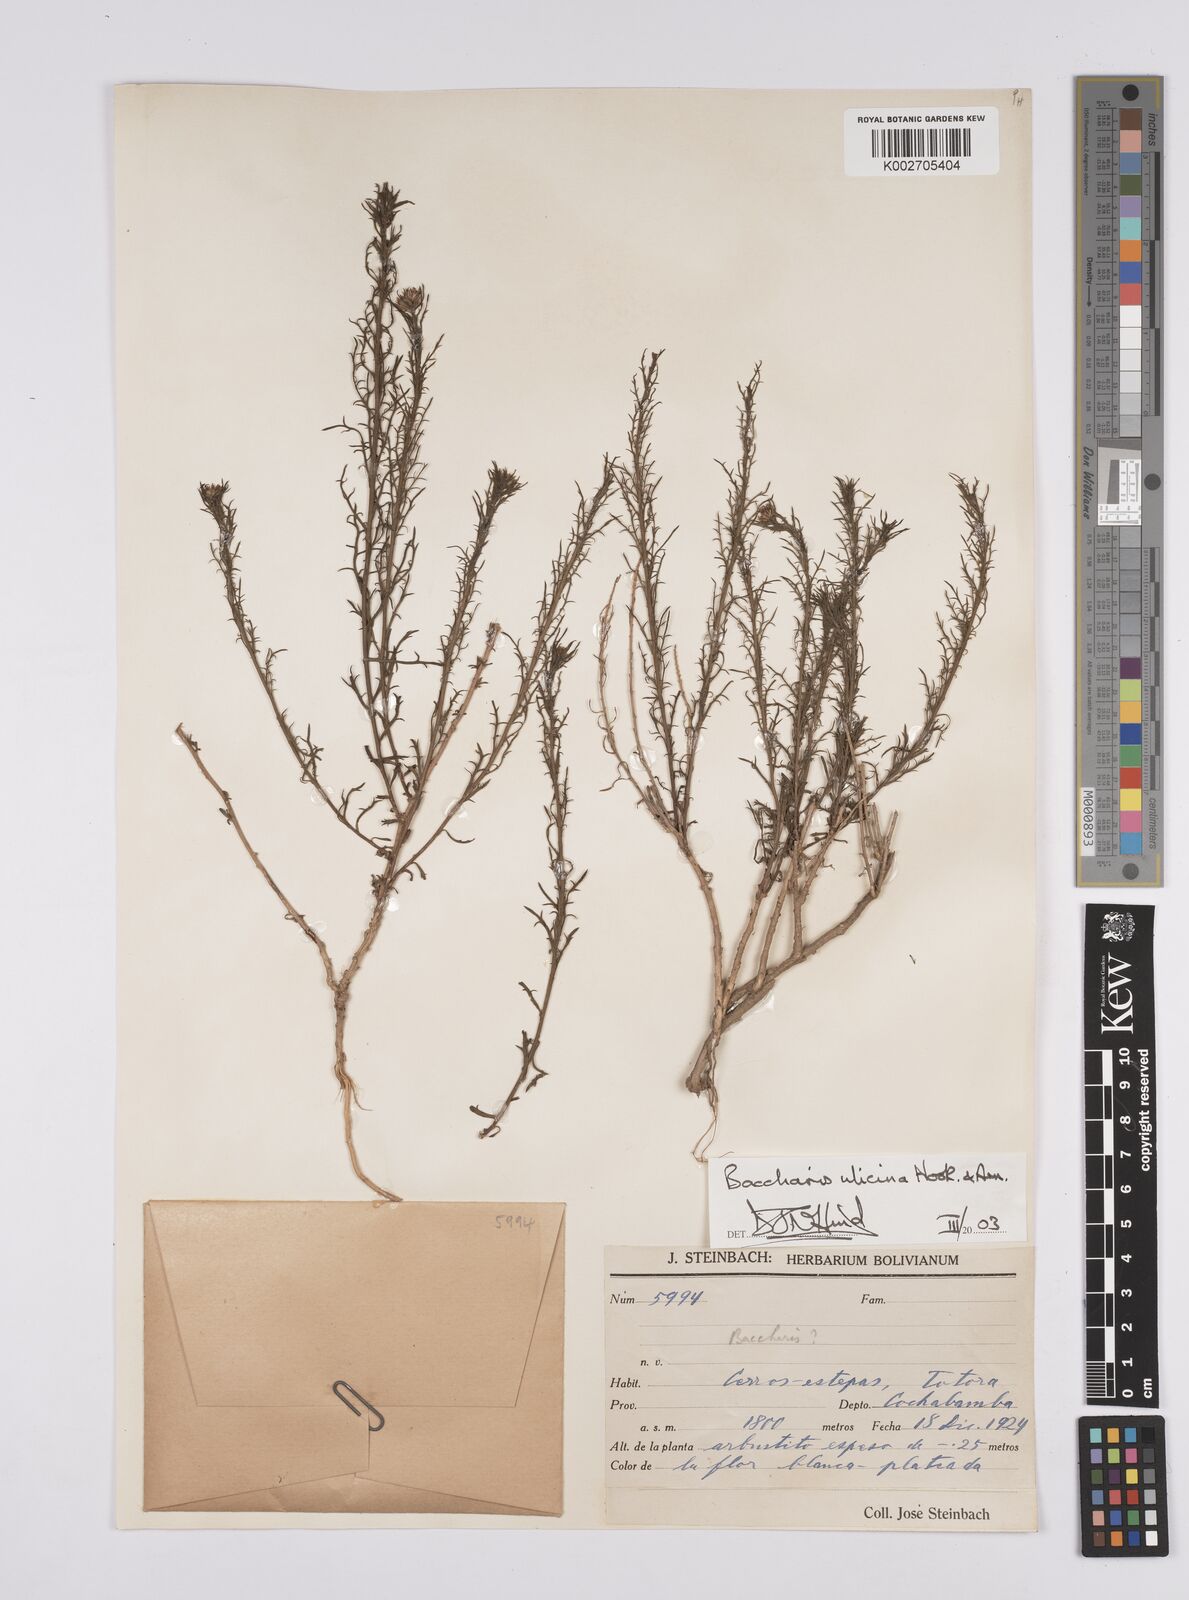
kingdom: Plantae
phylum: Tracheophyta
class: Magnoliopsida
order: Asterales
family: Asteraceae
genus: Baccharis
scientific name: Baccharis ulicina
